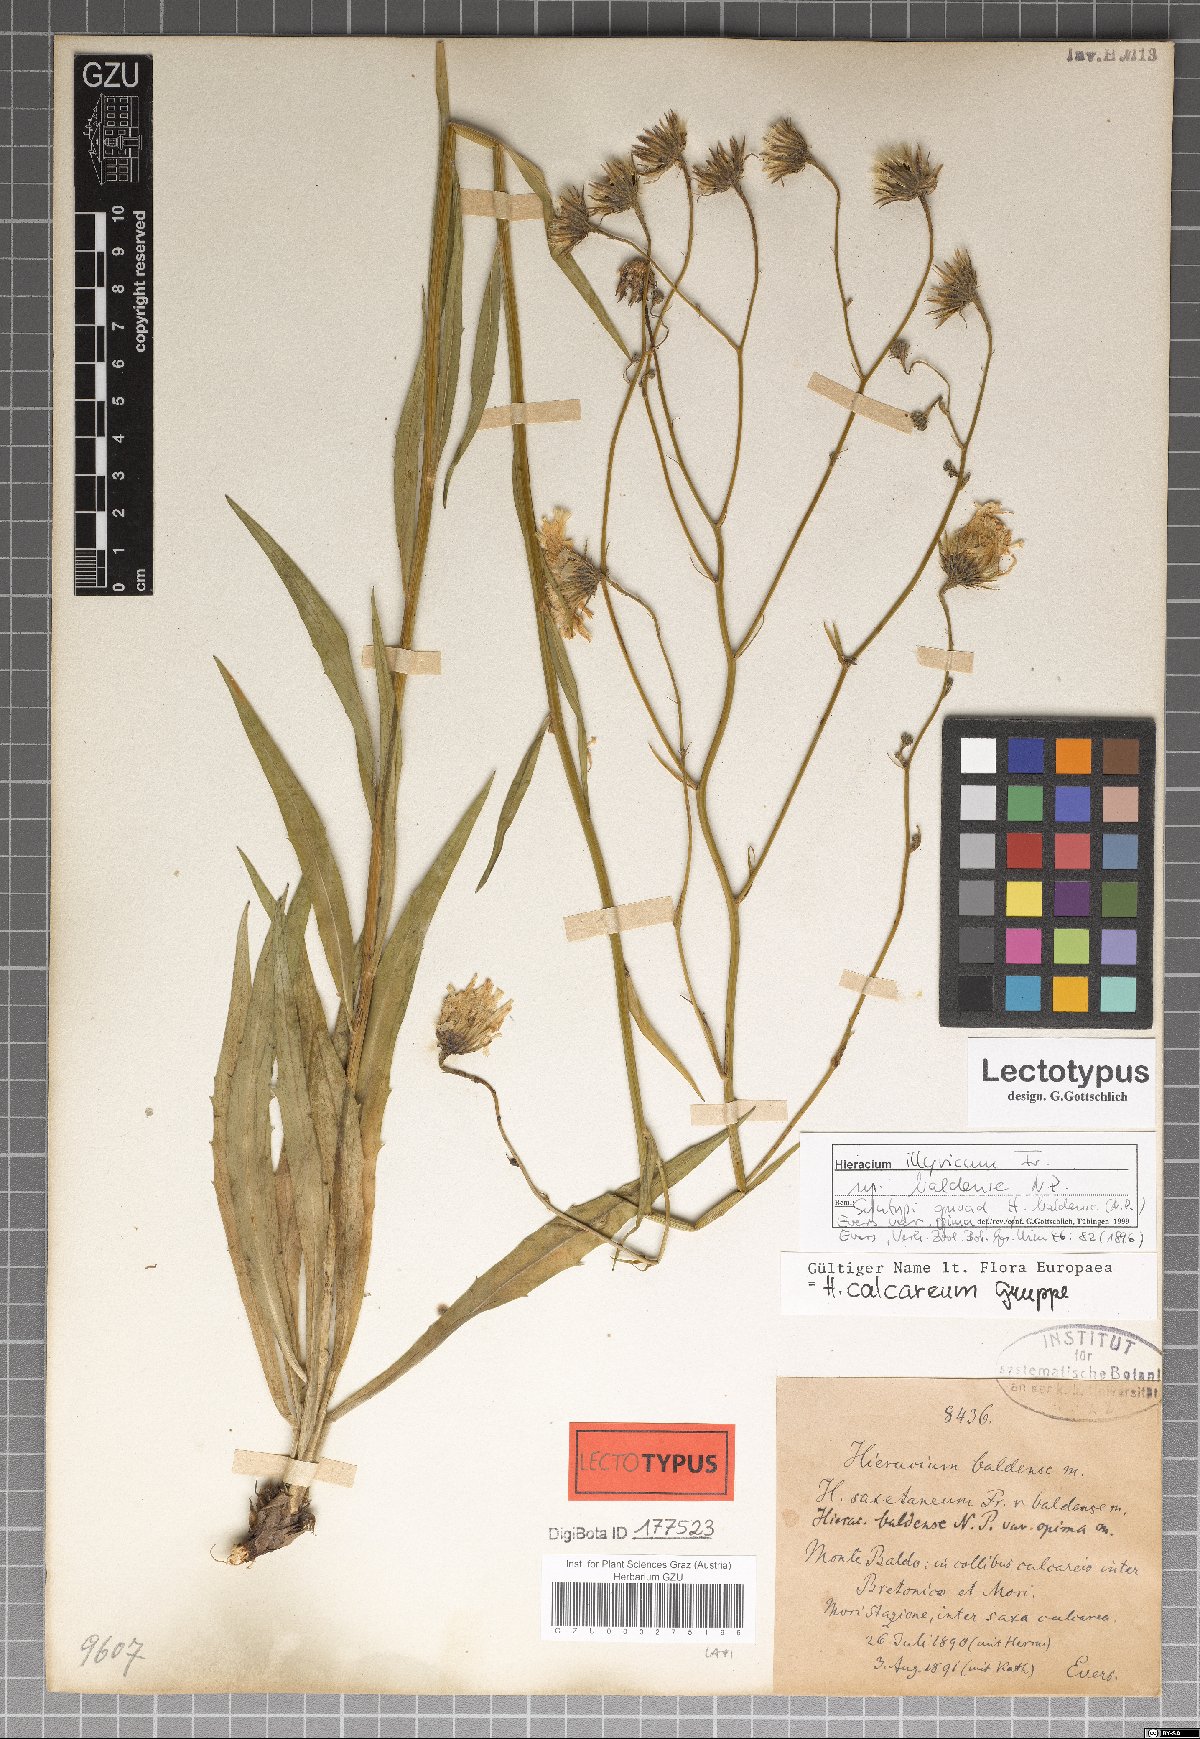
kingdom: Plantae
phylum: Tracheophyta
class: Magnoliopsida
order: Asterales
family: Asteraceae
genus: Hieracium
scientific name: Hieracium calcareum
